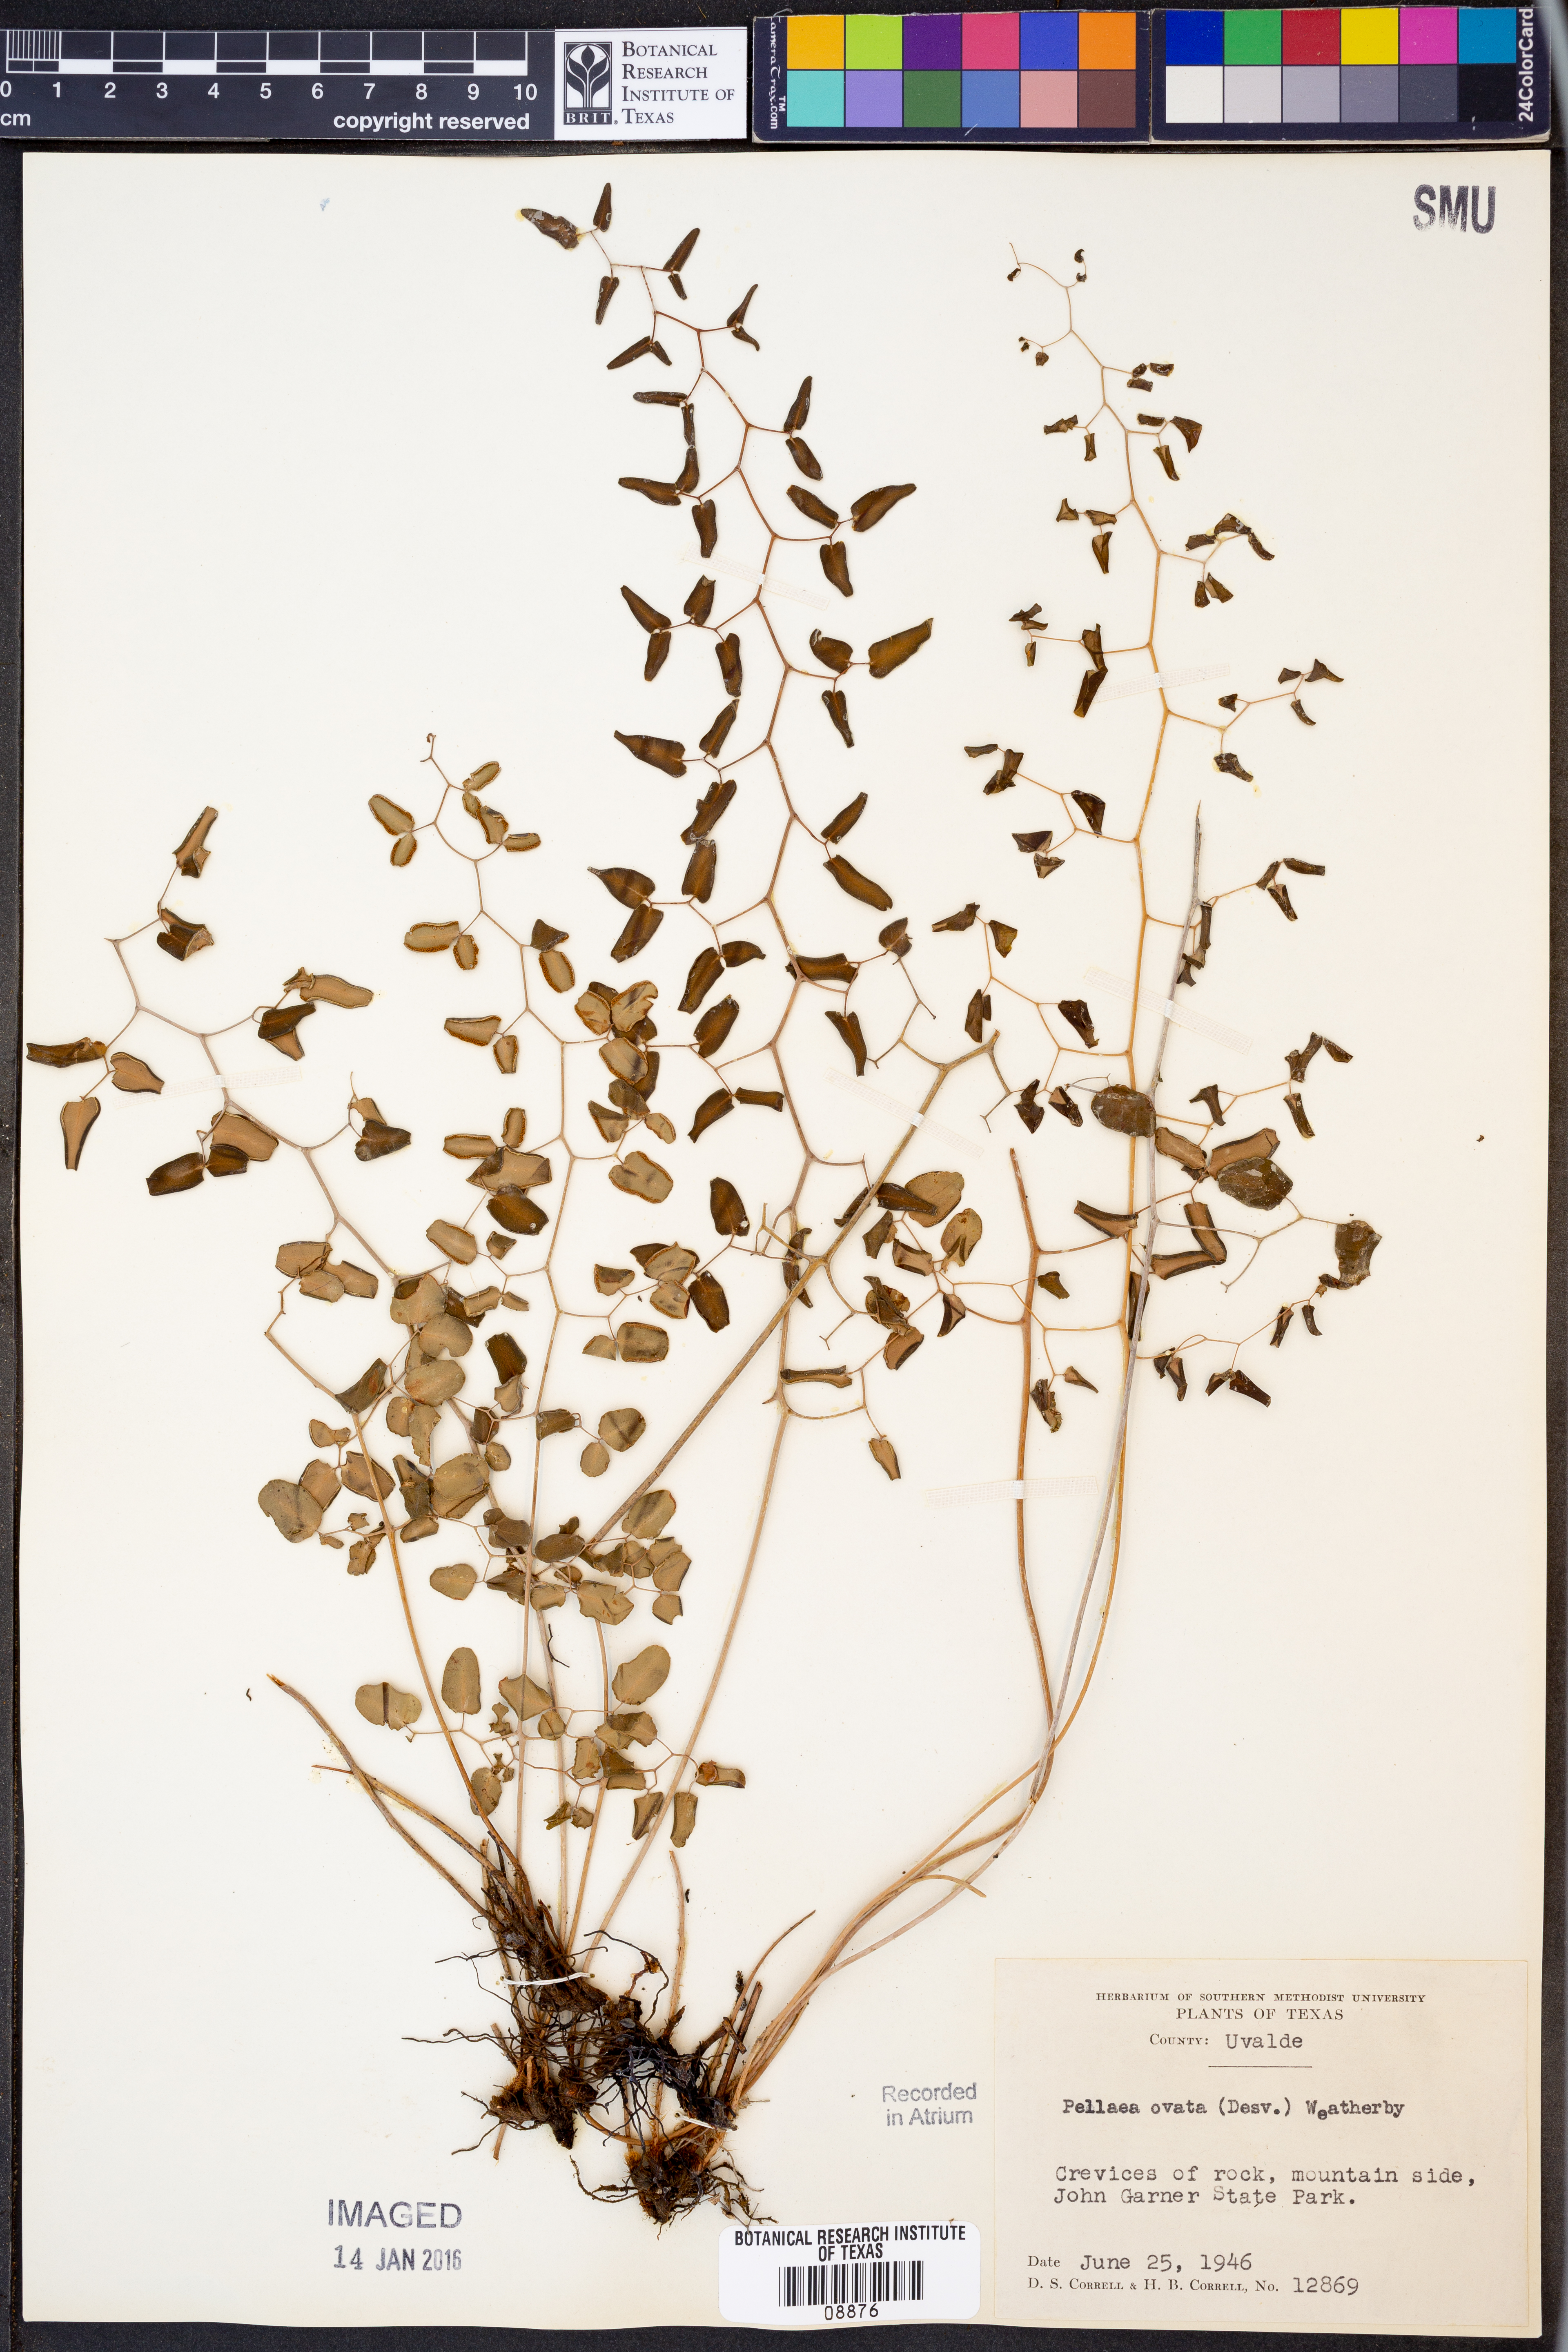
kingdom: Plantae
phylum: Tracheophyta
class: Polypodiopsida
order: Polypodiales
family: Pteridaceae
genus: Pellaea
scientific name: Pellaea ovata
